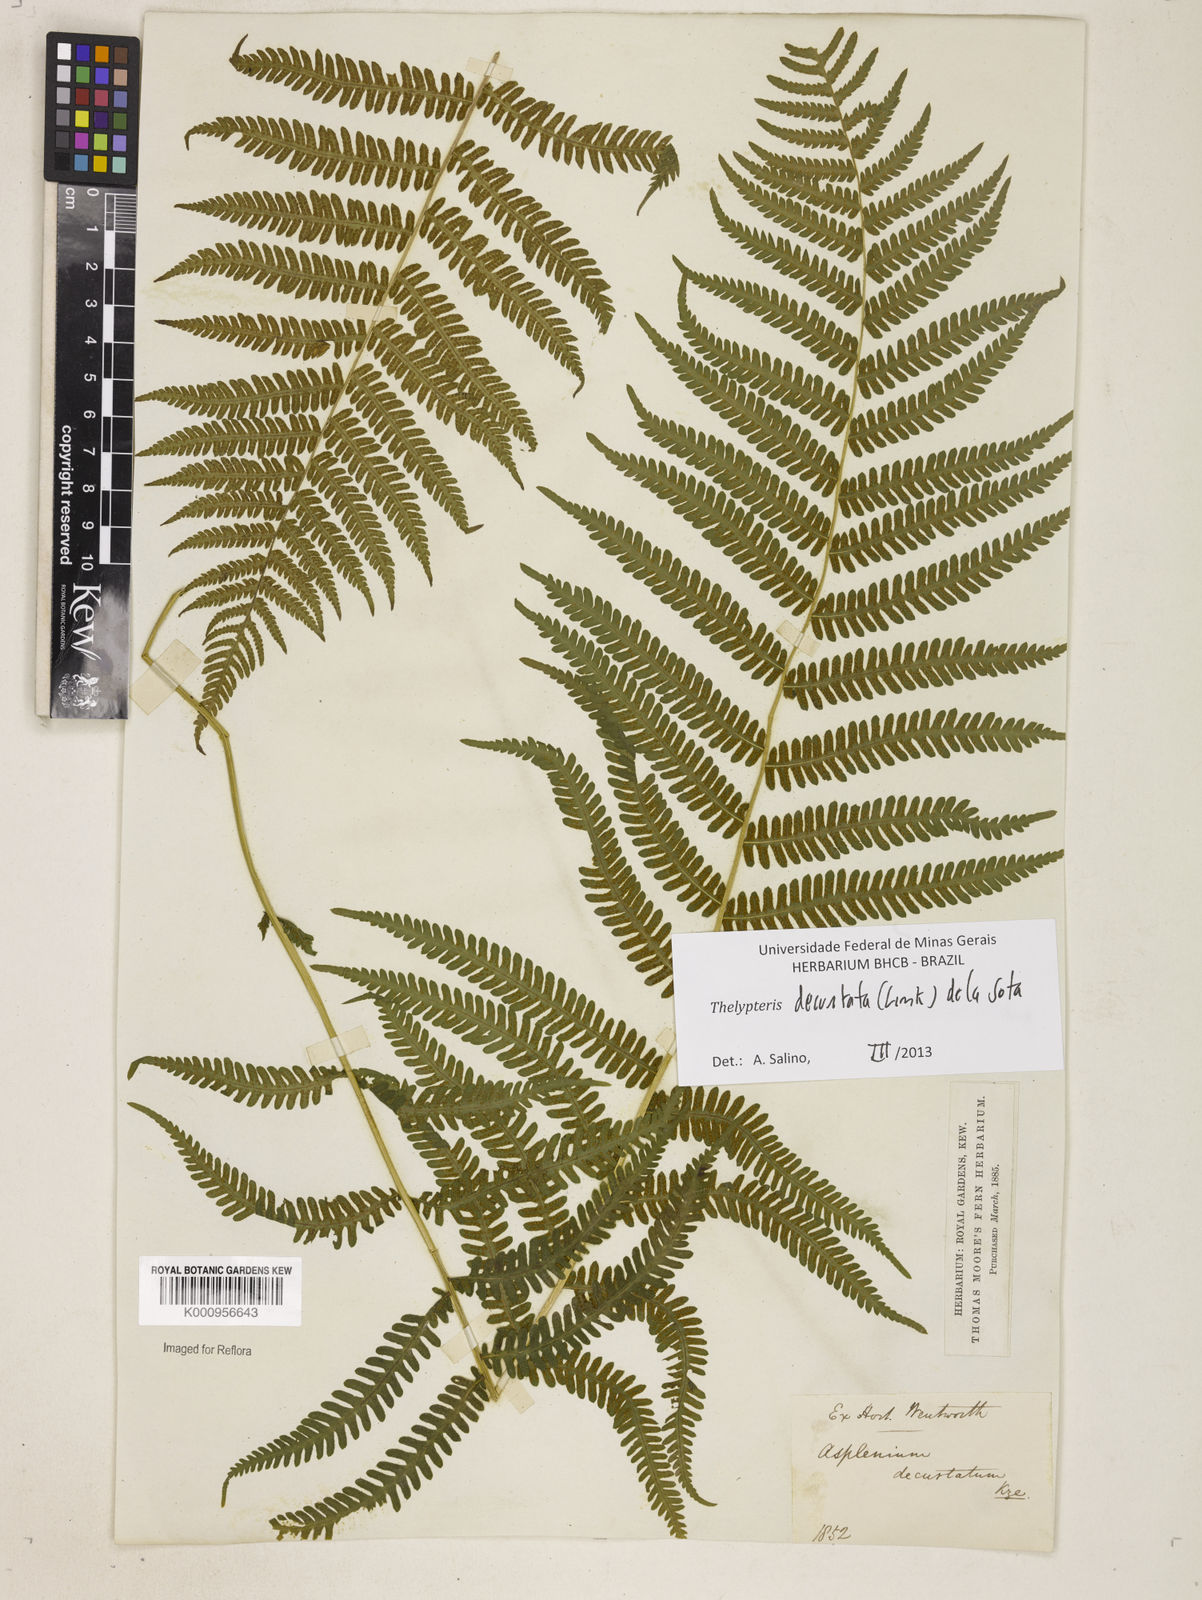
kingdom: Plantae
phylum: Tracheophyta
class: Polypodiopsida
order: Polypodiales
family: Thelypteridaceae
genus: Amauropelta
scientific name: Amauropelta decurtata
